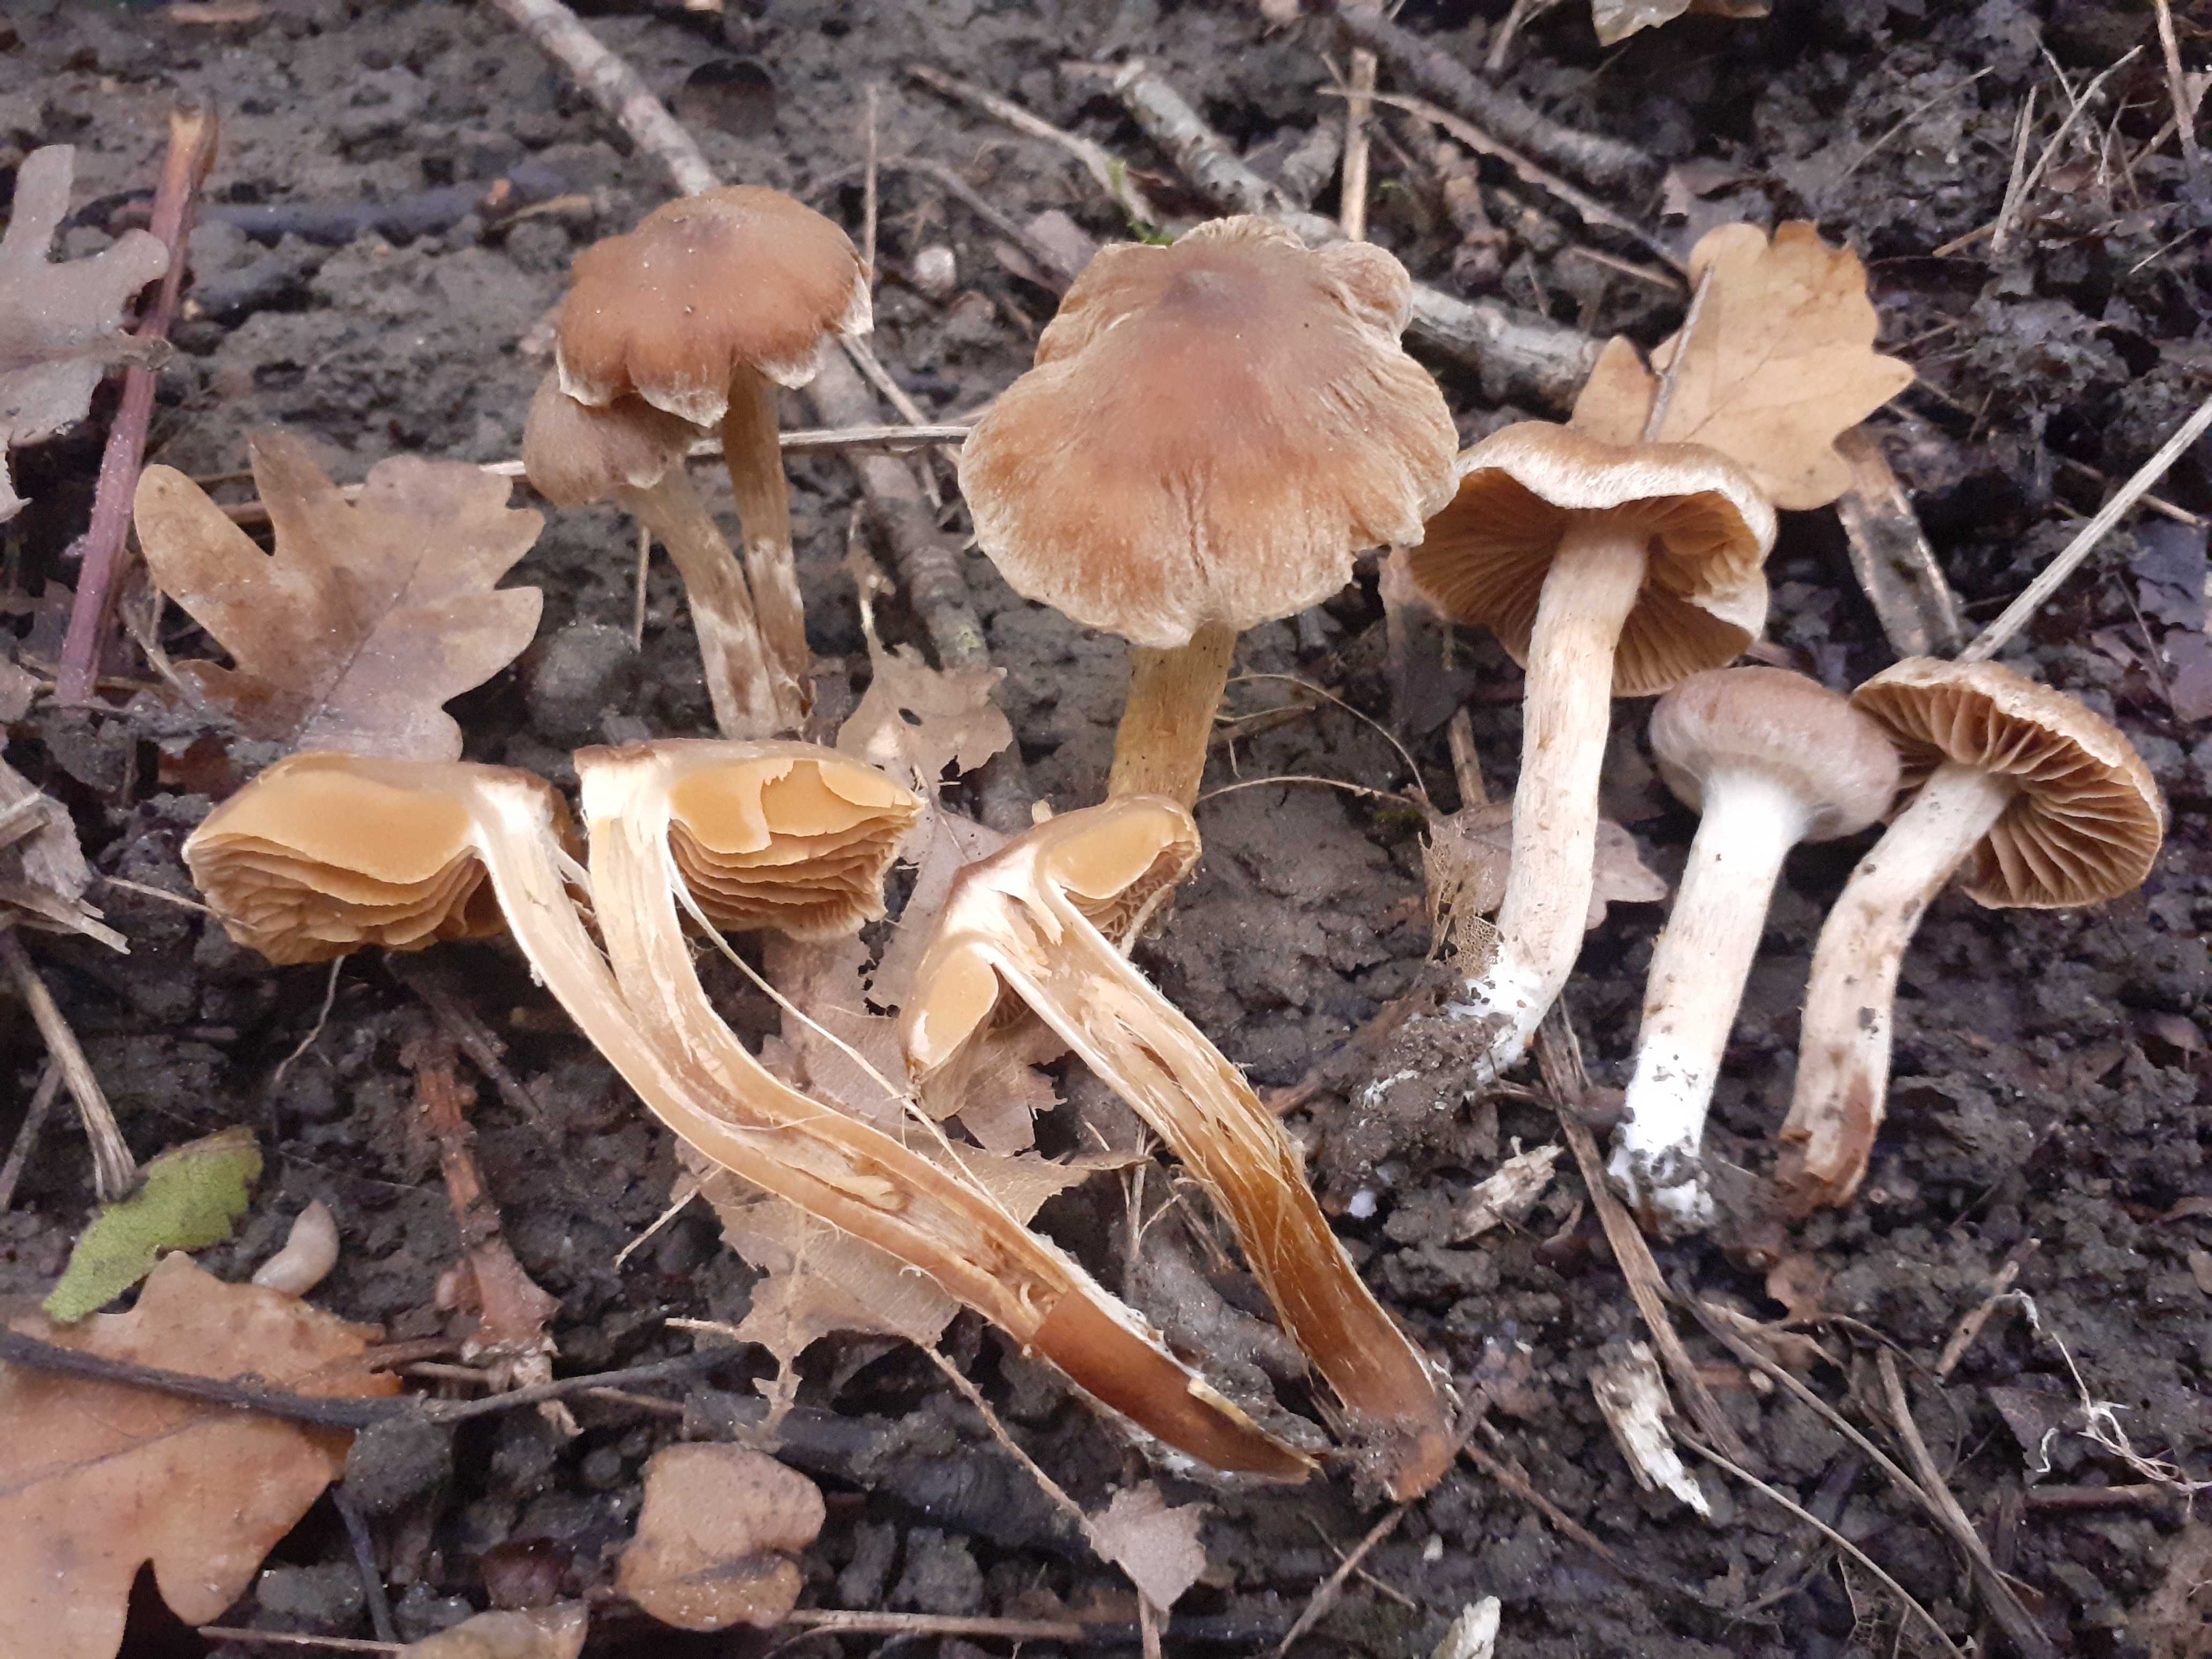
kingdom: Fungi
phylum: Basidiomycota
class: Agaricomycetes
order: Agaricales
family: Cortinariaceae
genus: Cortinarius
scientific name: Cortinarius fuscogracilescens
